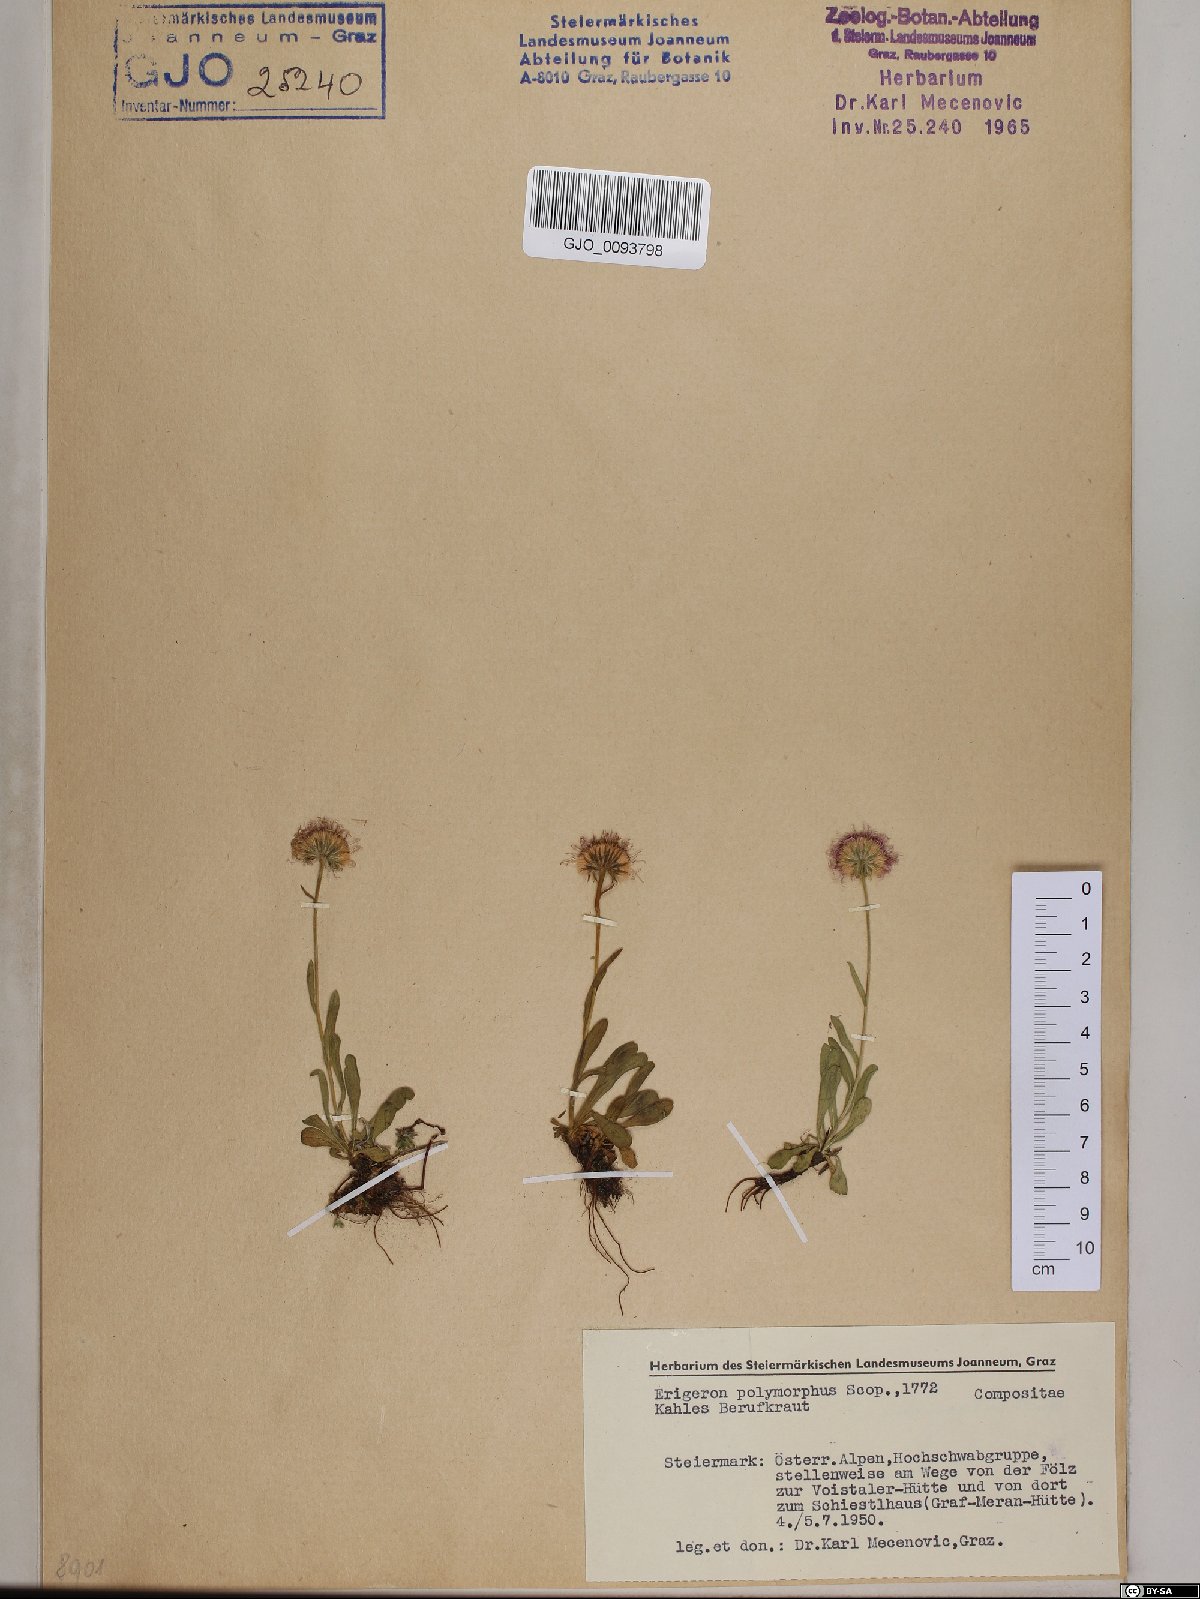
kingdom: Plantae
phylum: Tracheophyta
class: Magnoliopsida
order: Asterales
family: Asteraceae
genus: Erigeron
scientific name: Erigeron alpinus
